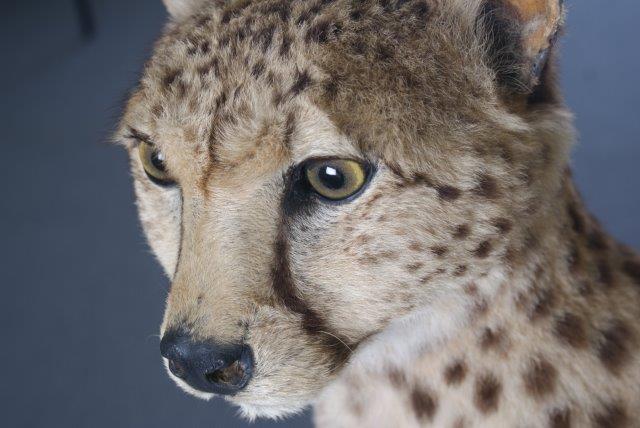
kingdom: Animalia
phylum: Chordata
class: Mammalia
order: Carnivora
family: Felidae
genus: Acinonyx
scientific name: Acinonyx jubatus
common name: Cheetah
